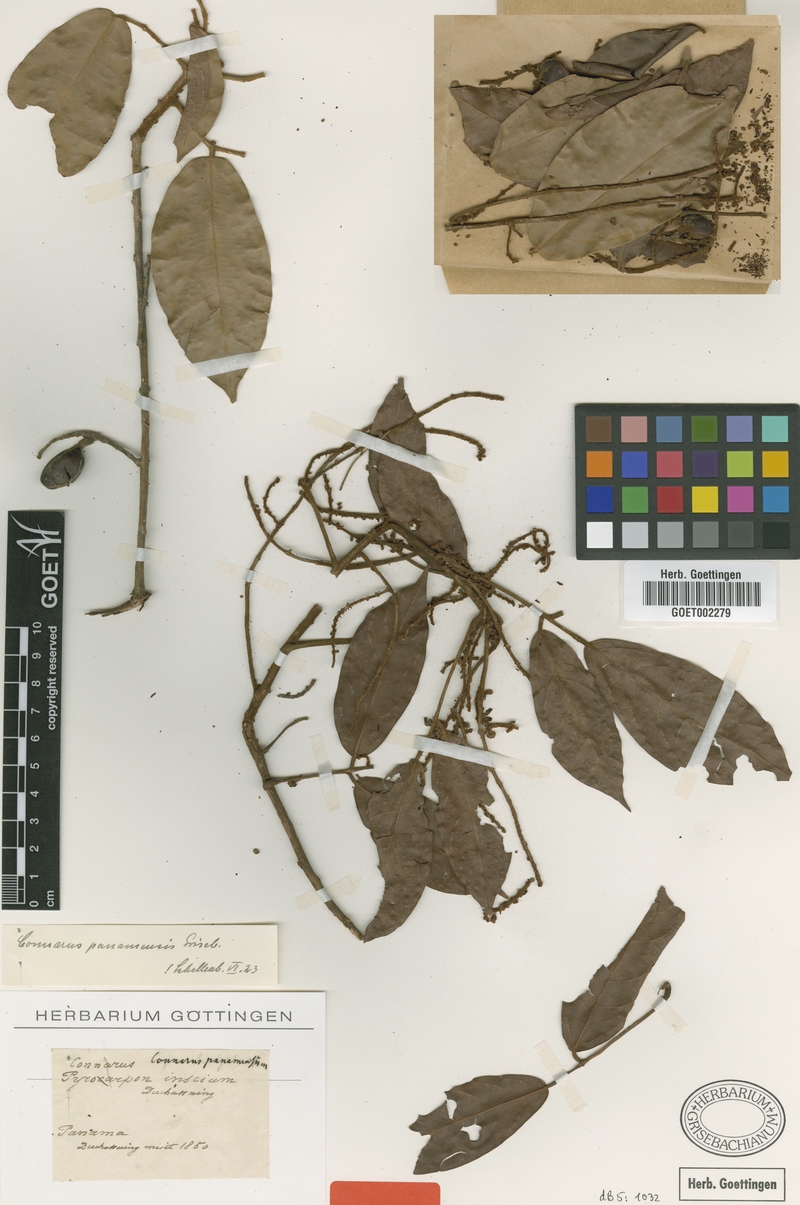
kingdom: Plantae
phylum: Tracheophyta
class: Magnoliopsida
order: Oxalidales
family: Connaraceae
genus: Connarus
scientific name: Connarus panamensis
